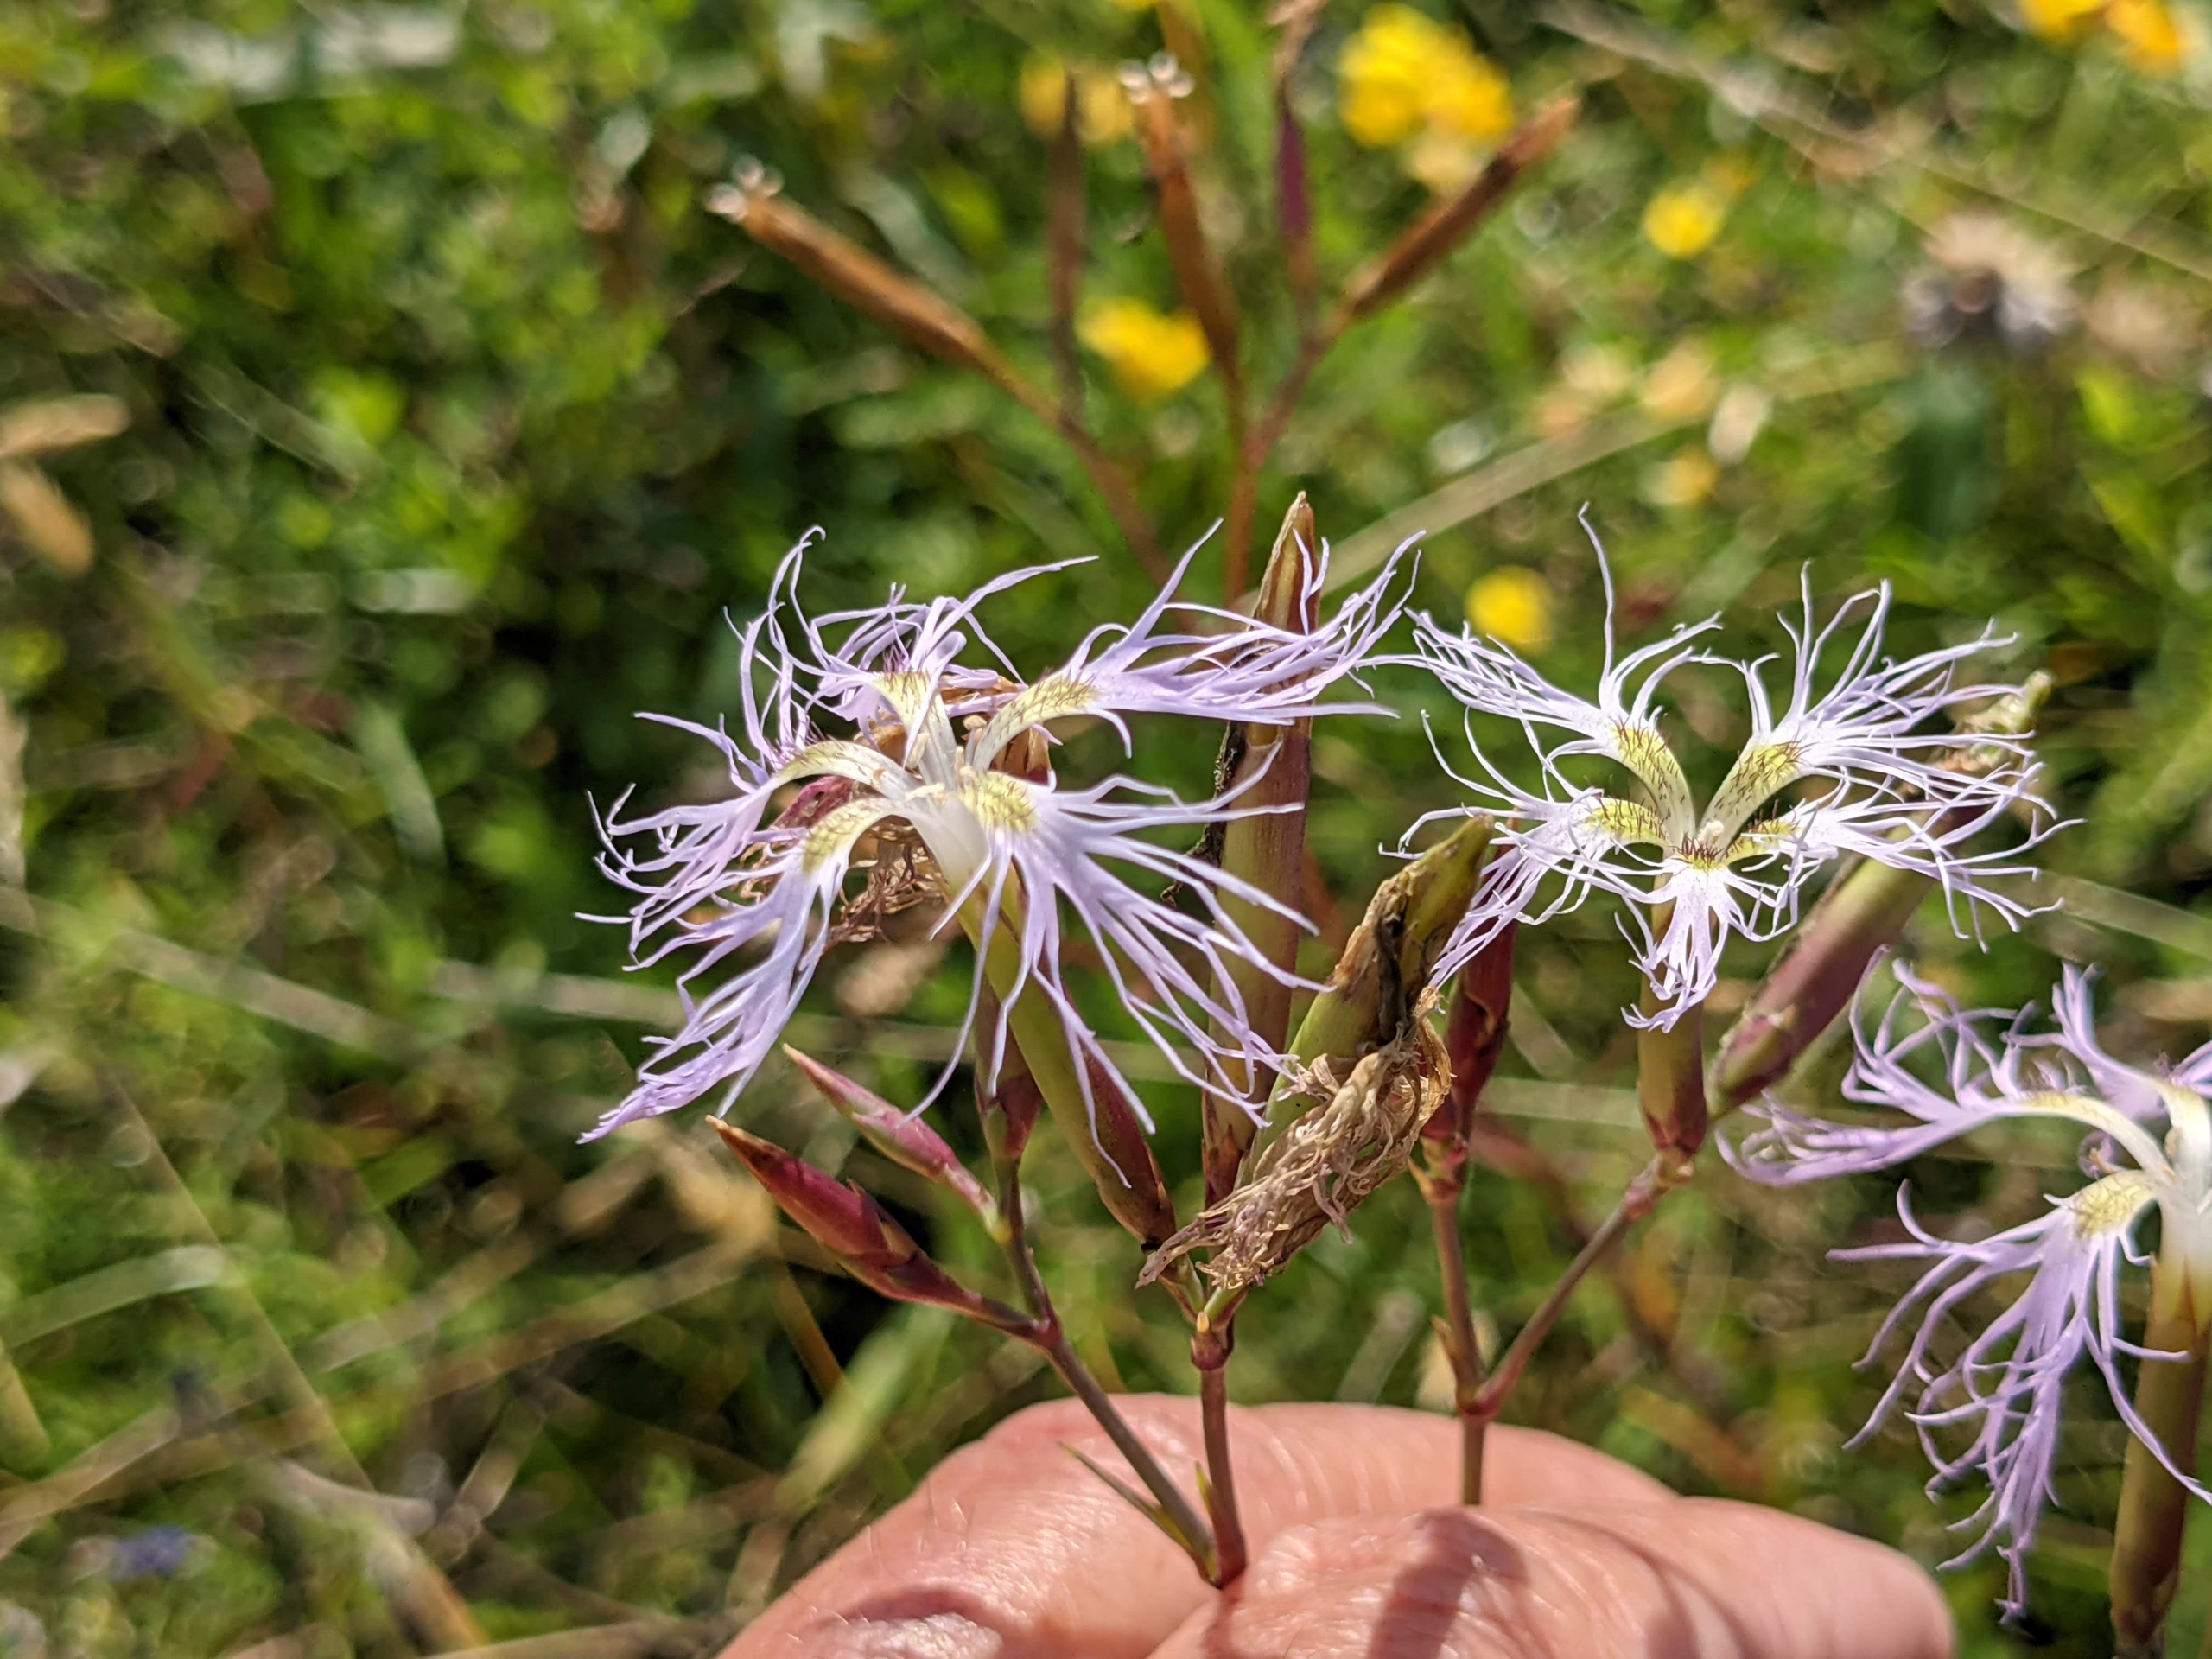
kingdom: Plantae
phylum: Tracheophyta
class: Magnoliopsida
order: Caryophyllales
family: Caryophyllaceae
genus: Dianthus
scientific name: Dianthus superbus
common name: Strand-nellike
